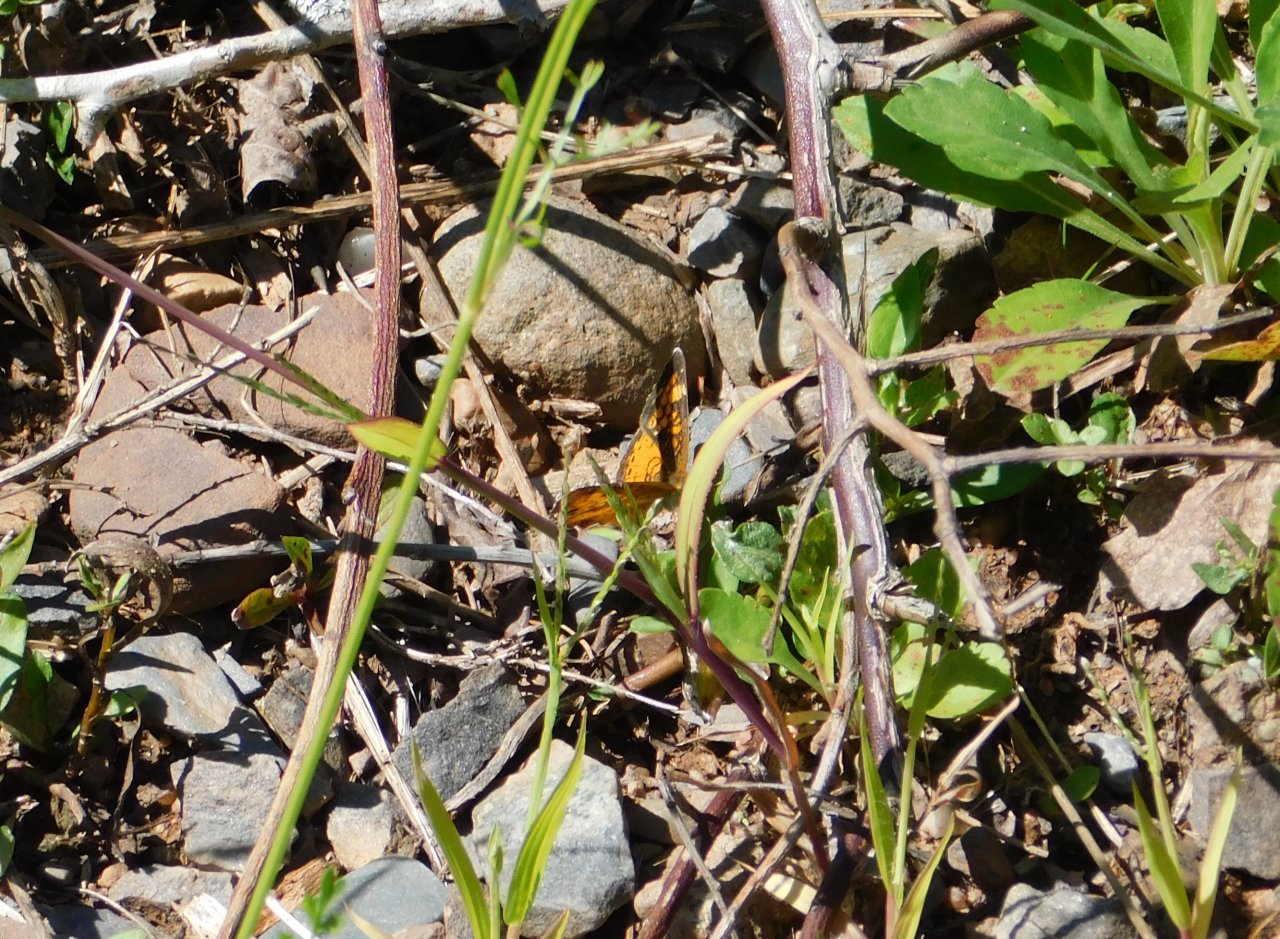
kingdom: Animalia
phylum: Arthropoda
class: Insecta
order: Lepidoptera
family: Nymphalidae
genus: Phyciodes
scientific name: Phyciodes tharos
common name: Northern Crescent
